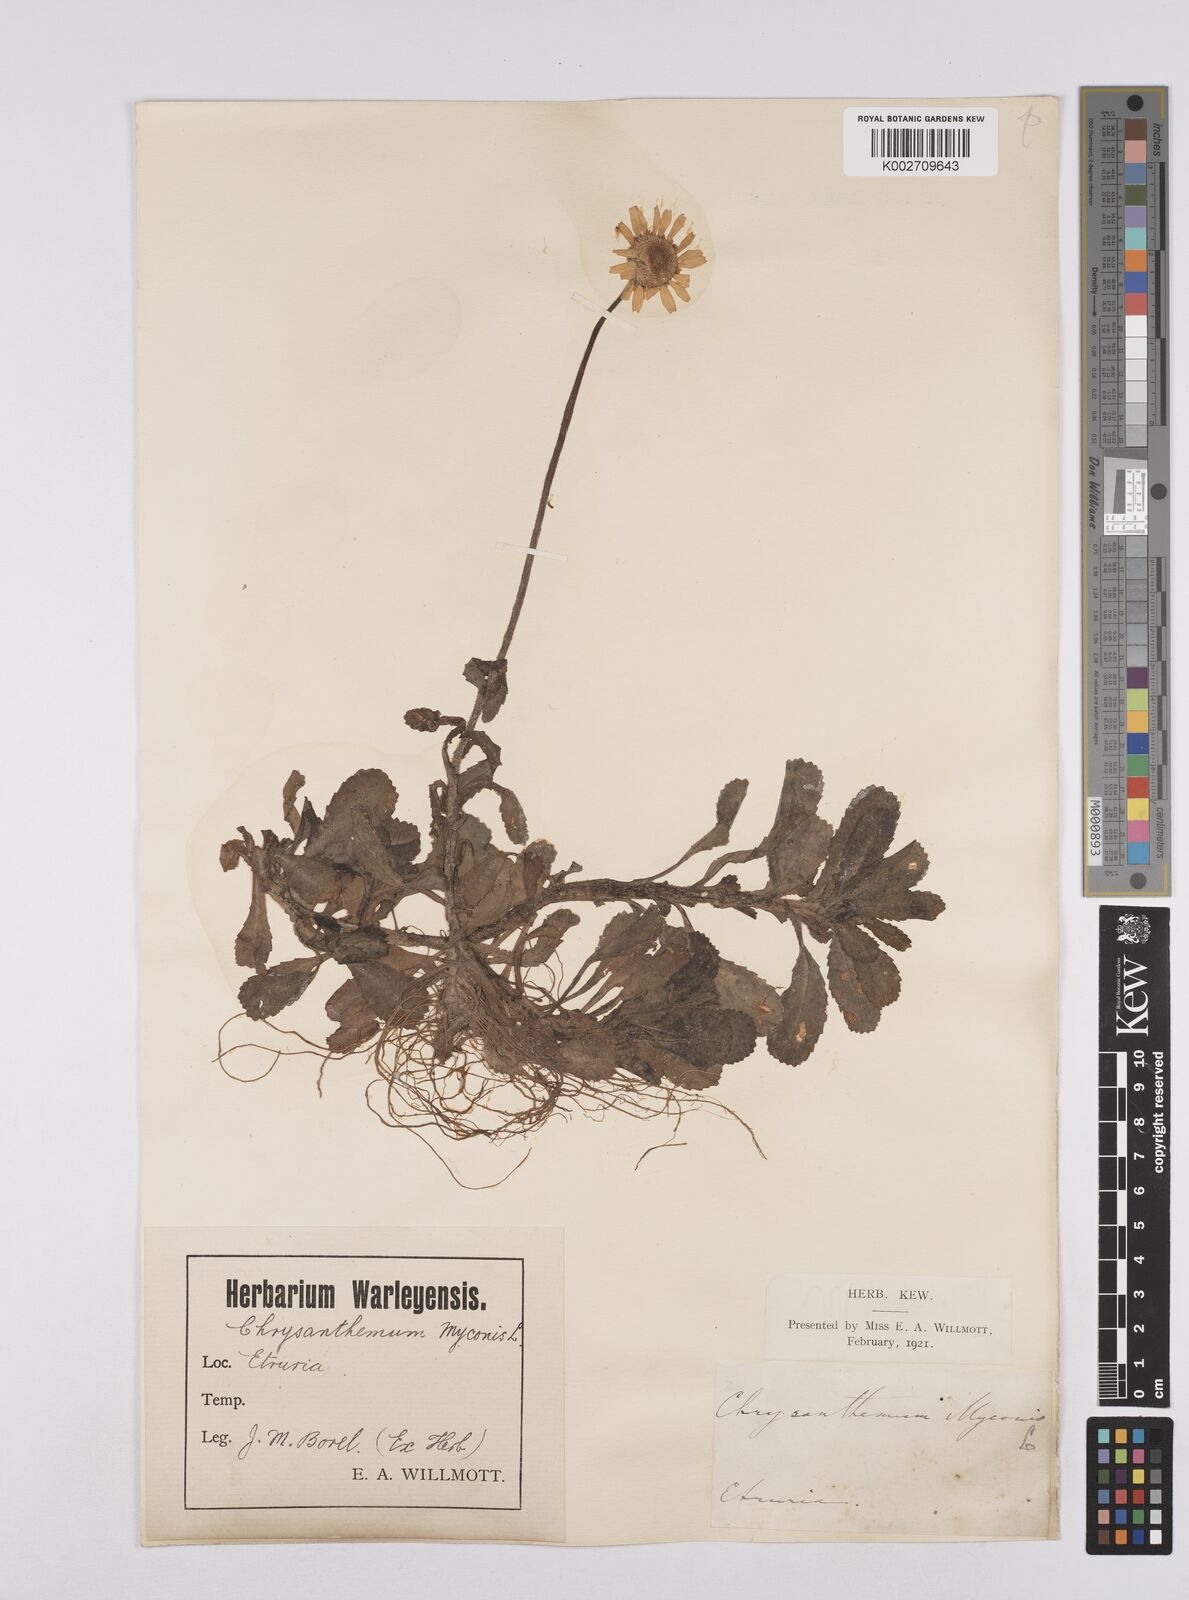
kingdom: Plantae
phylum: Tracheophyta
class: Magnoliopsida
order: Asterales
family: Asteraceae
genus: Coleostephus
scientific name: Coleostephus myconis
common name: Mediterranean marigold
